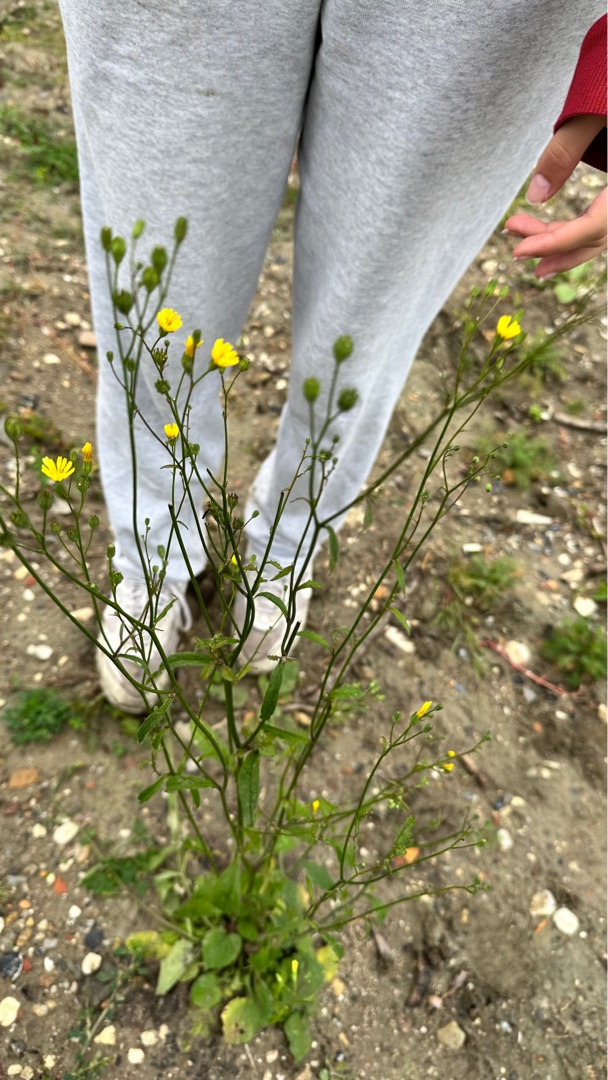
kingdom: Plantae
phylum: Tracheophyta
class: Magnoliopsida
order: Asterales
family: Asteraceae
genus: Lapsana
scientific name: Lapsana communis
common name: Haremad
